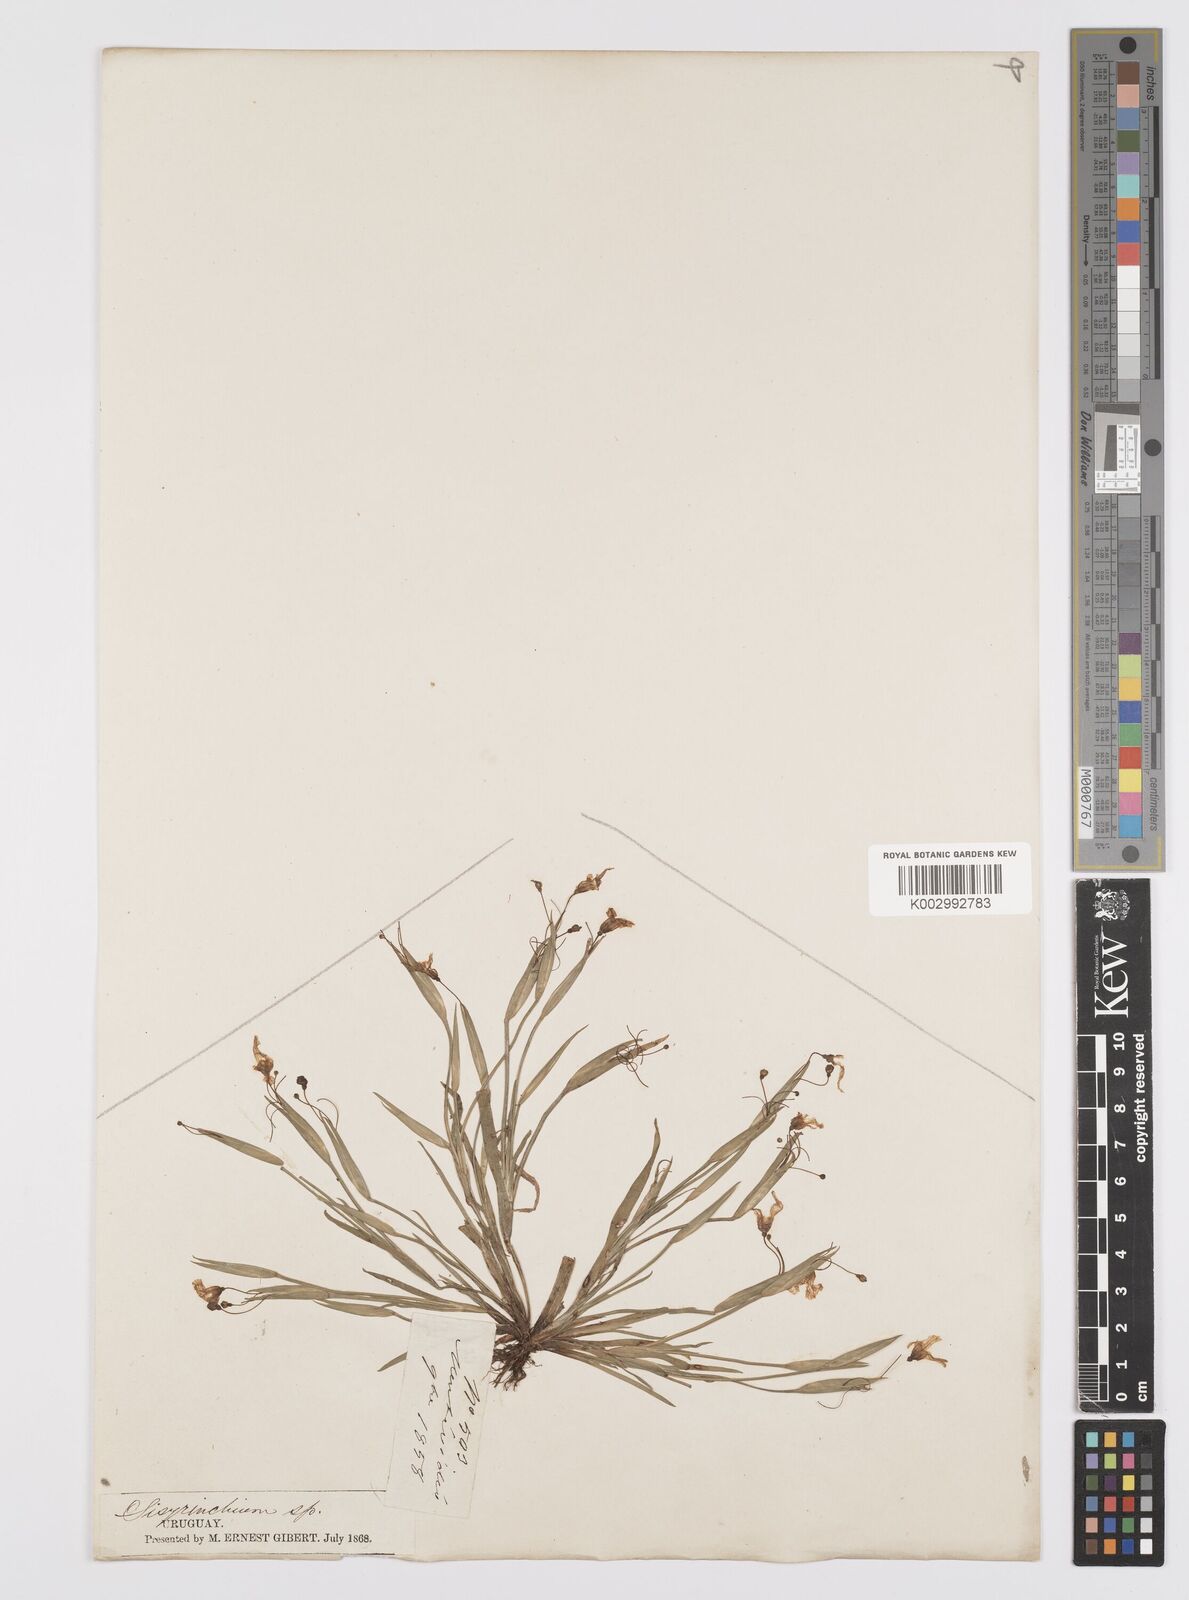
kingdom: Plantae
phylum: Tracheophyta
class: Liliopsida
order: Asparagales
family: Iridaceae
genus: Sisyrinchium
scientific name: Sisyrinchium chilense
